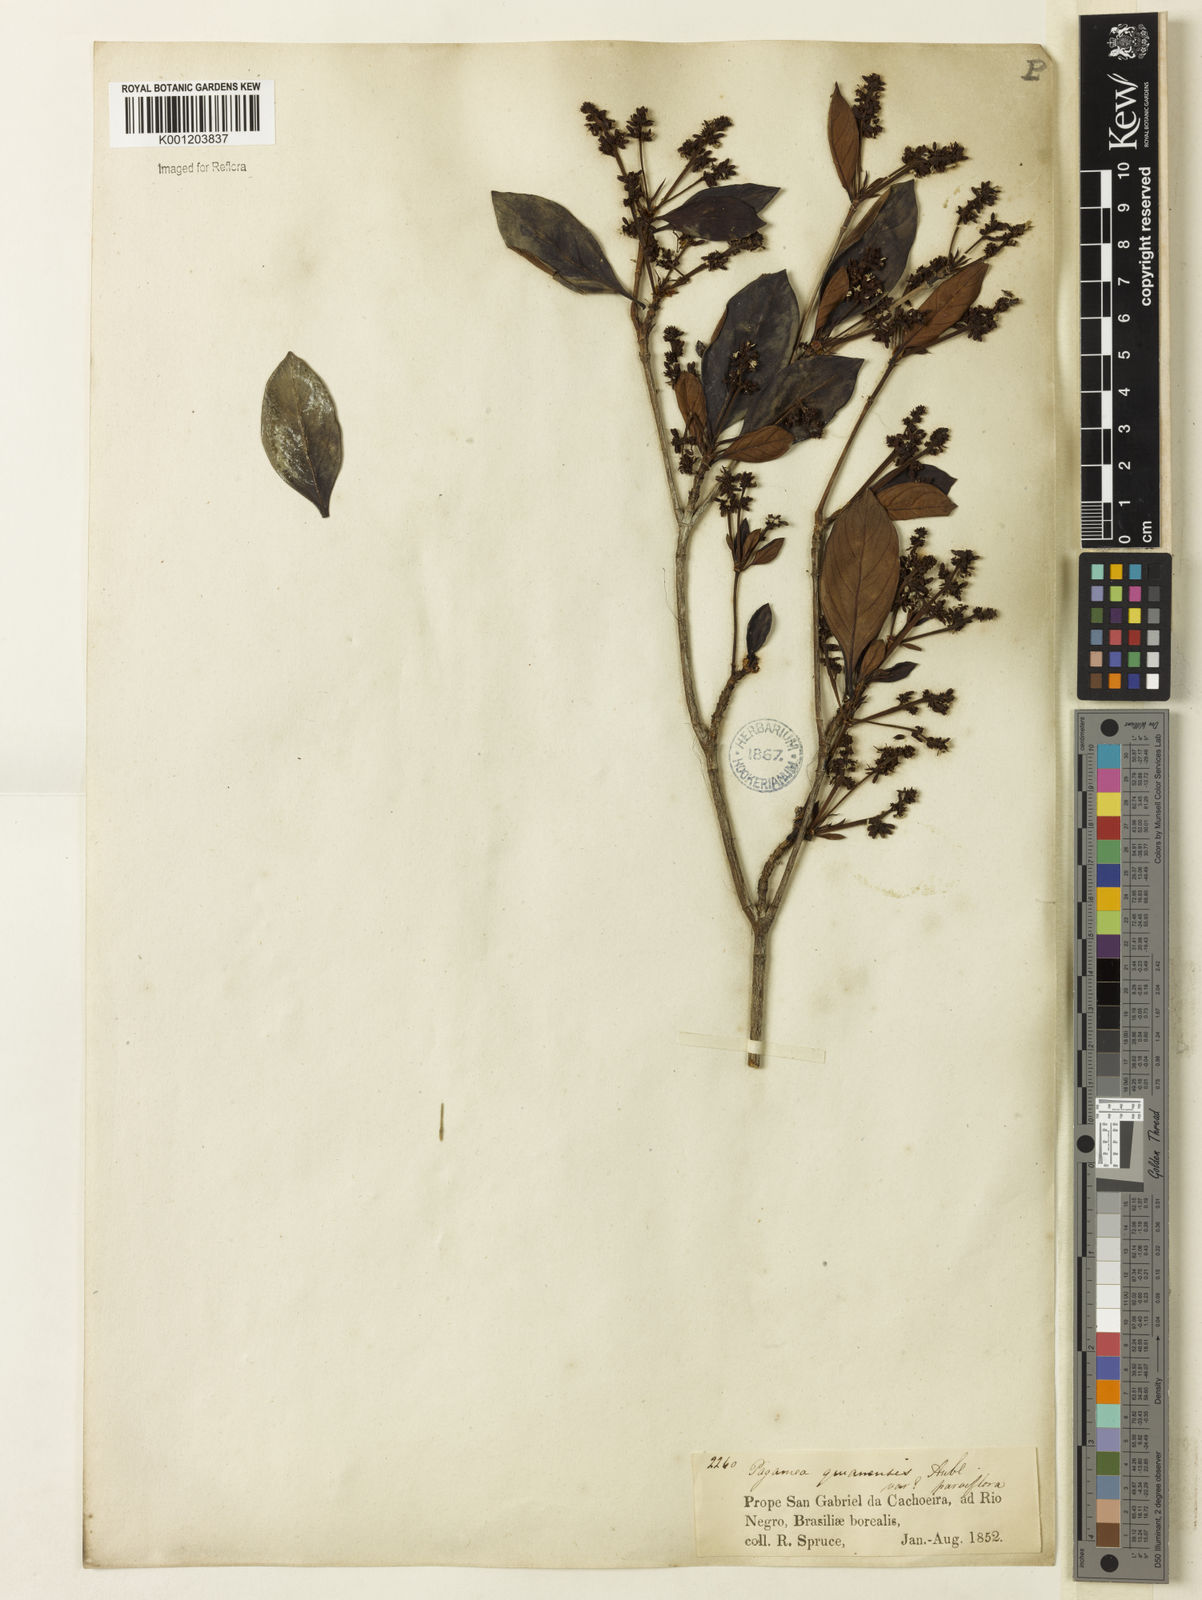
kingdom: Plantae
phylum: Tracheophyta
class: Magnoliopsida
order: Gentianales
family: Rubiaceae
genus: Pagamea
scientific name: Pagamea guianensis
